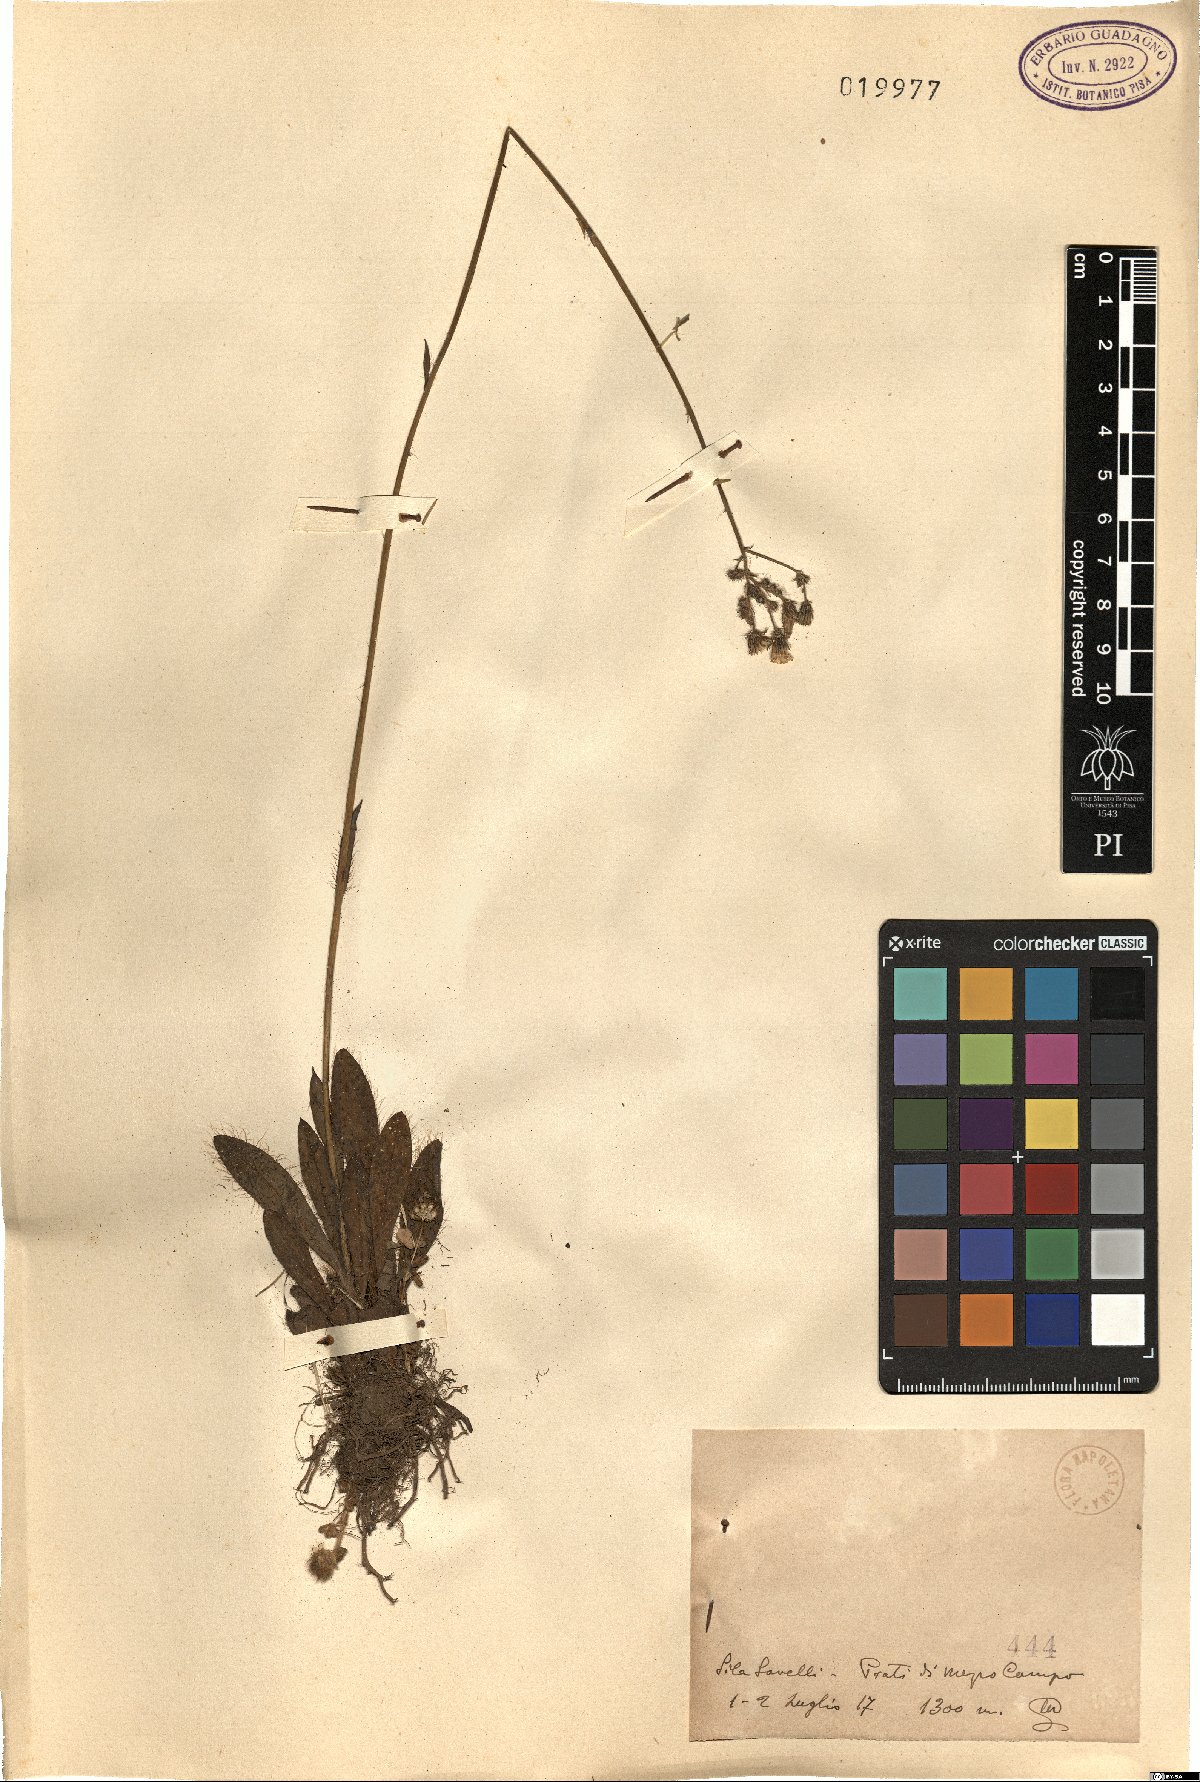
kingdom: Plantae
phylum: Tracheophyta
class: Magnoliopsida
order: Asterales
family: Asteraceae
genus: Hieracium
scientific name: Hieracium
